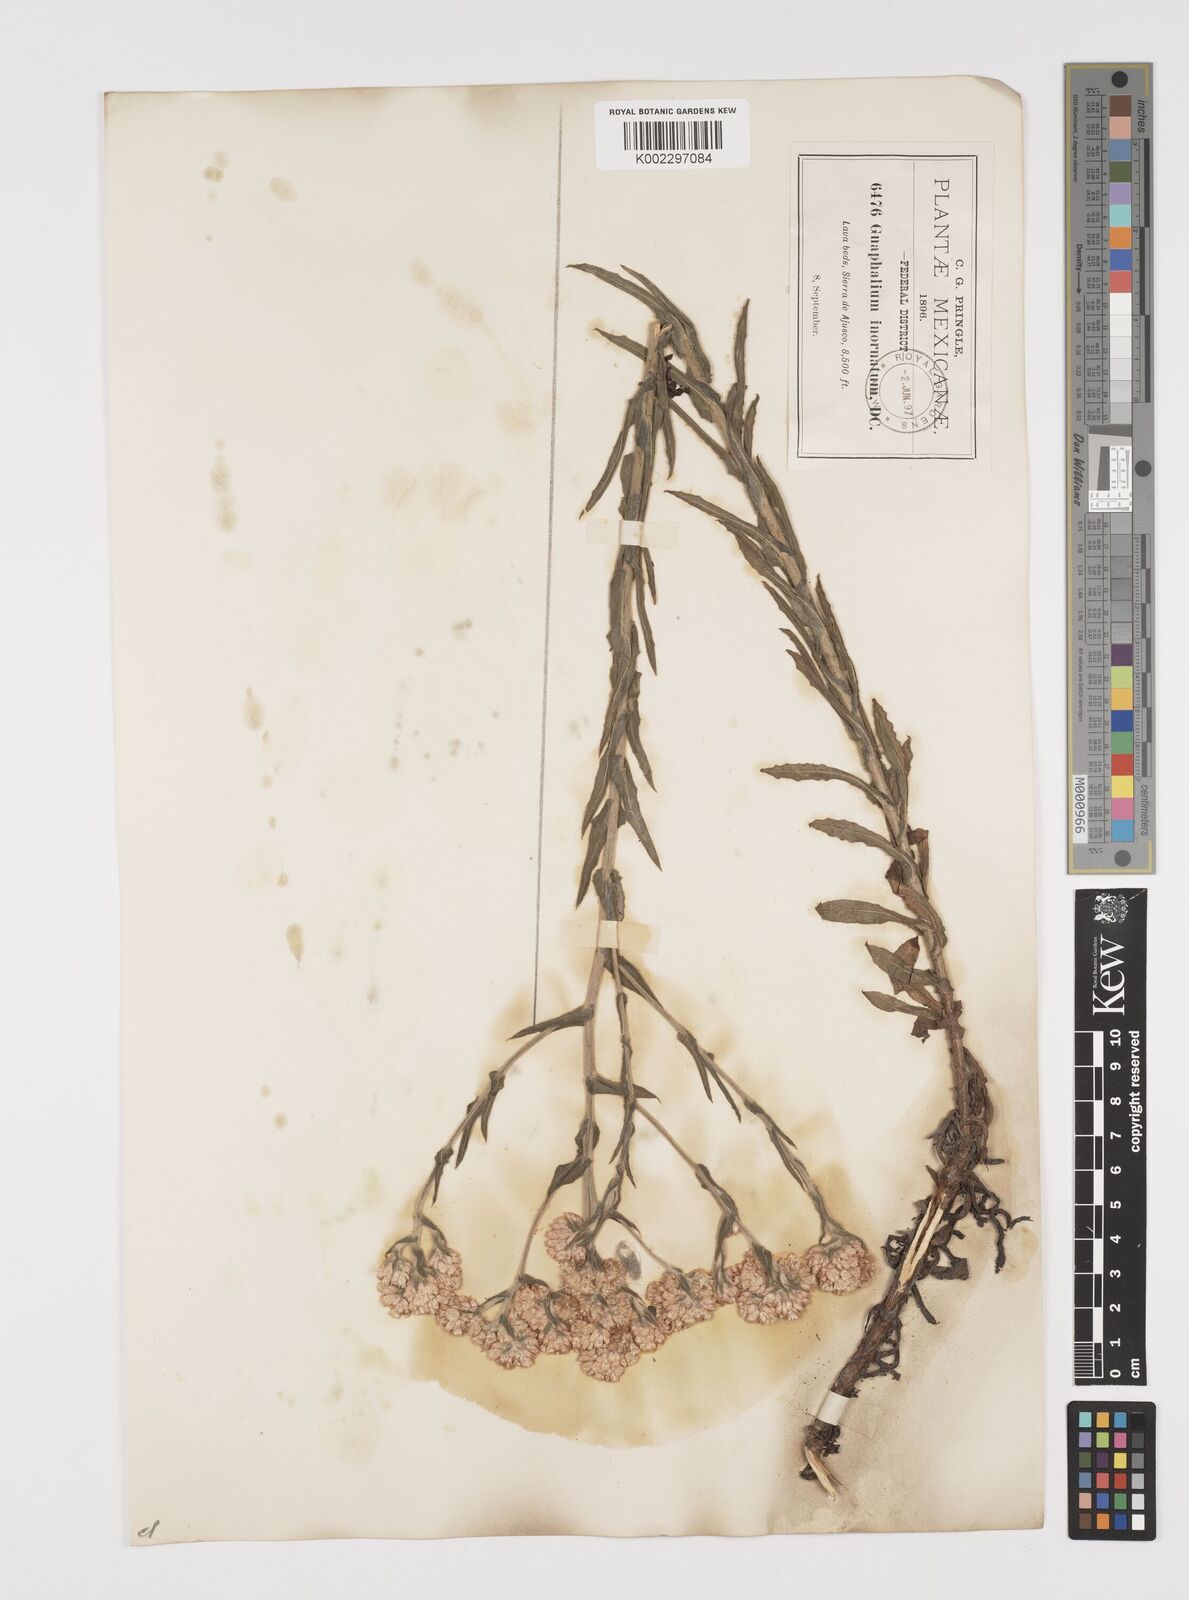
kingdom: Plantae
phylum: Tracheophyta
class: Magnoliopsida
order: Asterales
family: Asteraceae
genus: Pseudognaphalium
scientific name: Pseudognaphalium inornatum
